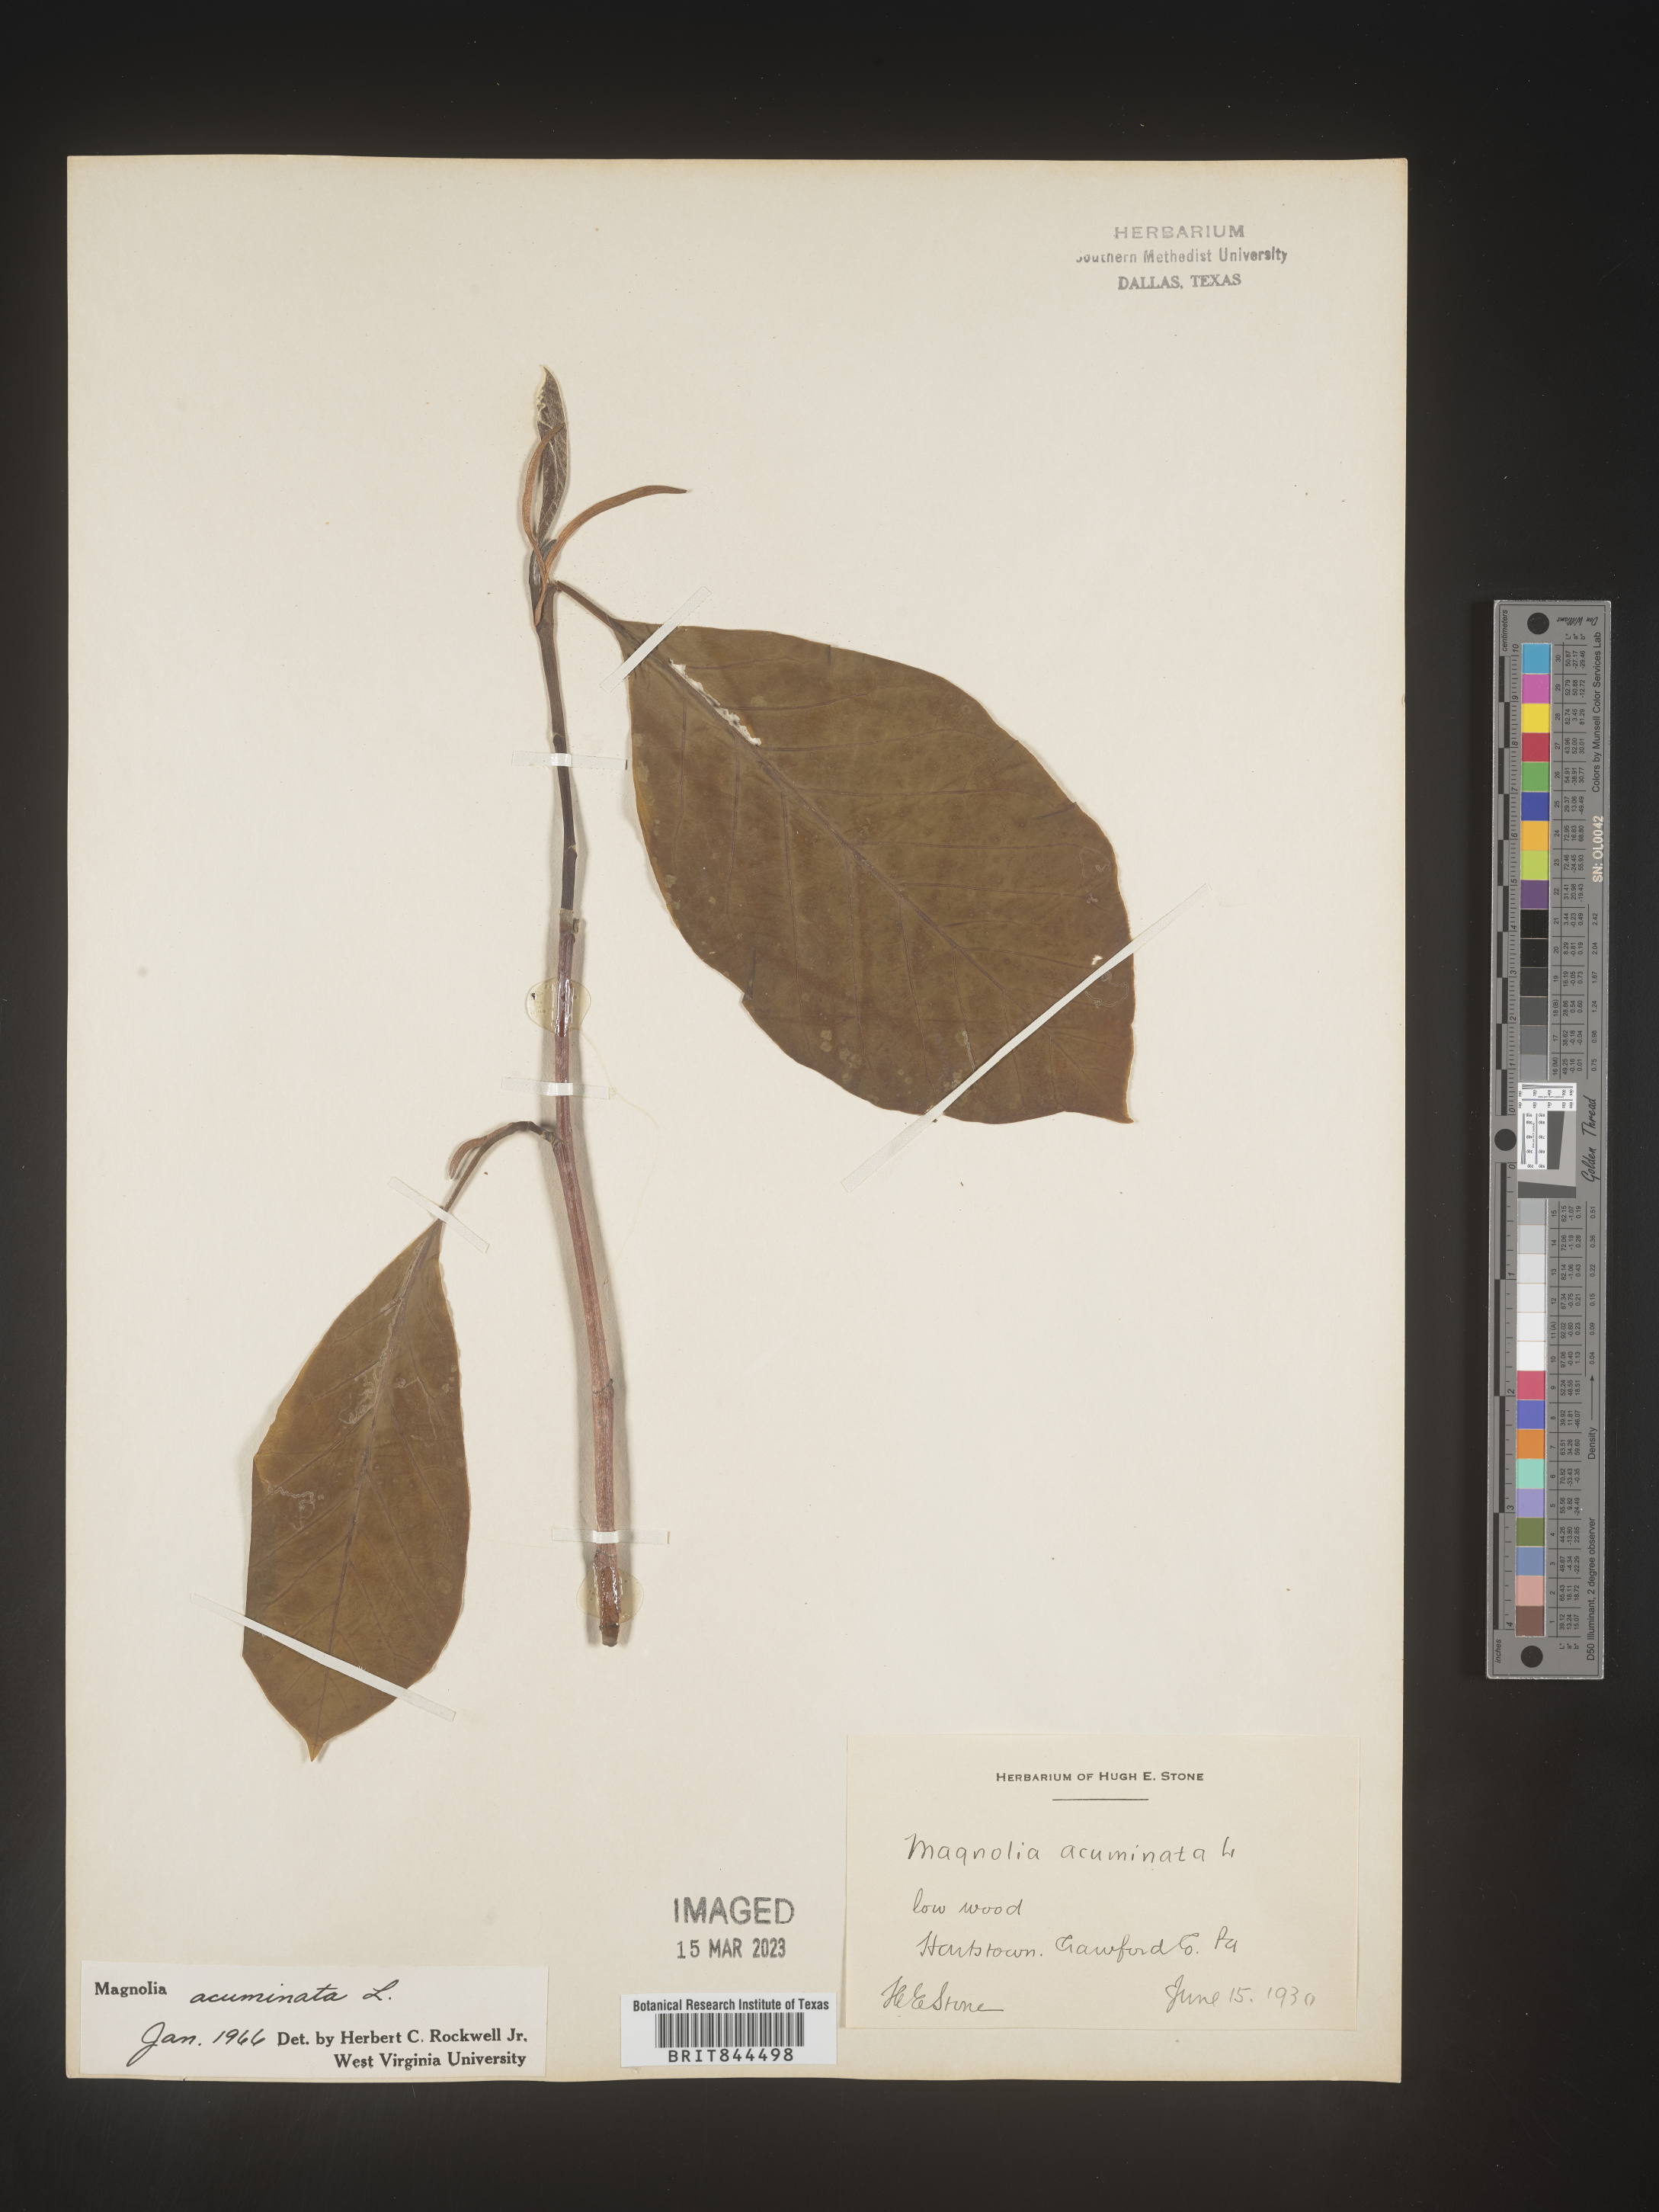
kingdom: Plantae
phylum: Tracheophyta
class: Magnoliopsida
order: Magnoliales
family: Magnoliaceae
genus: Magnolia
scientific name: Magnolia acuminata
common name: Cucumber magnolia
